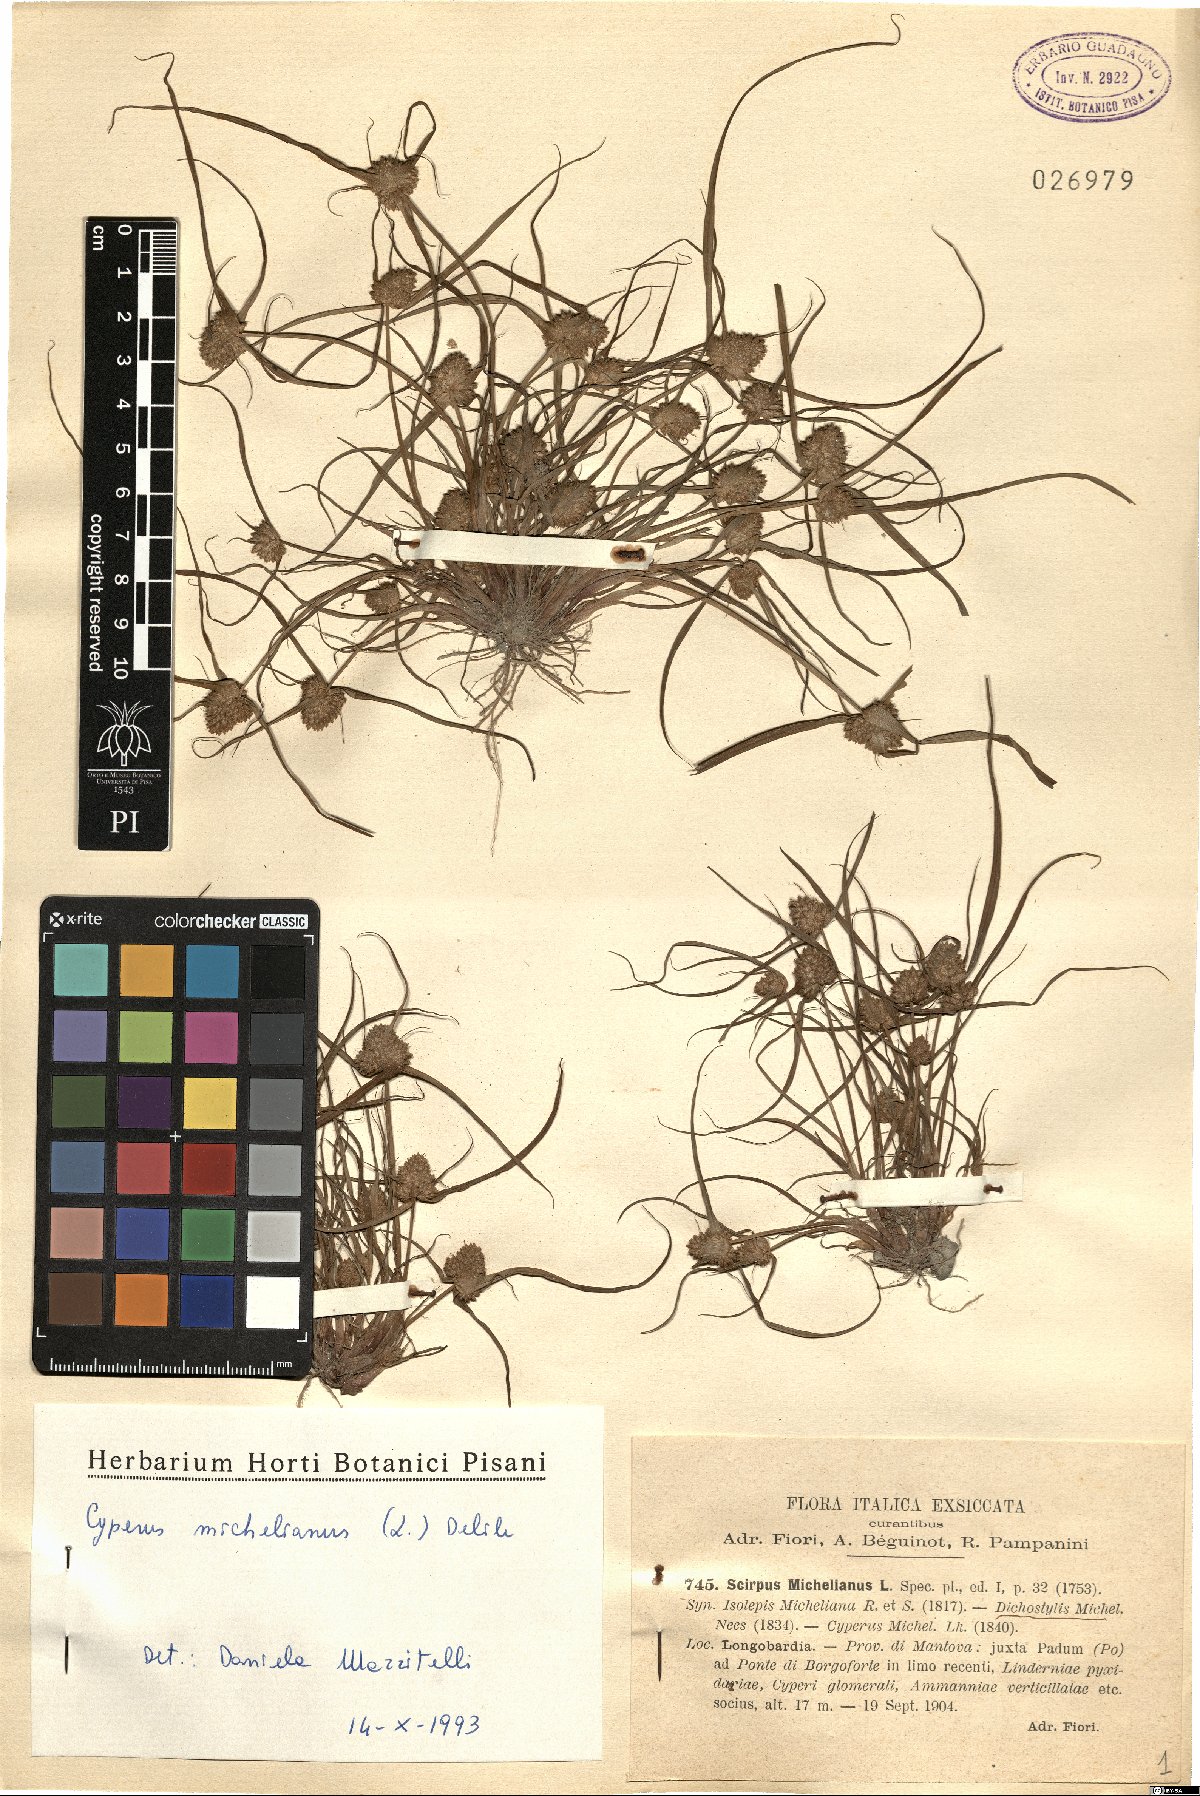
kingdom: Plantae
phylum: Tracheophyta
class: Liliopsida
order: Poales
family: Cyperaceae
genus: Cyperus
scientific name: Cyperus michelianus
